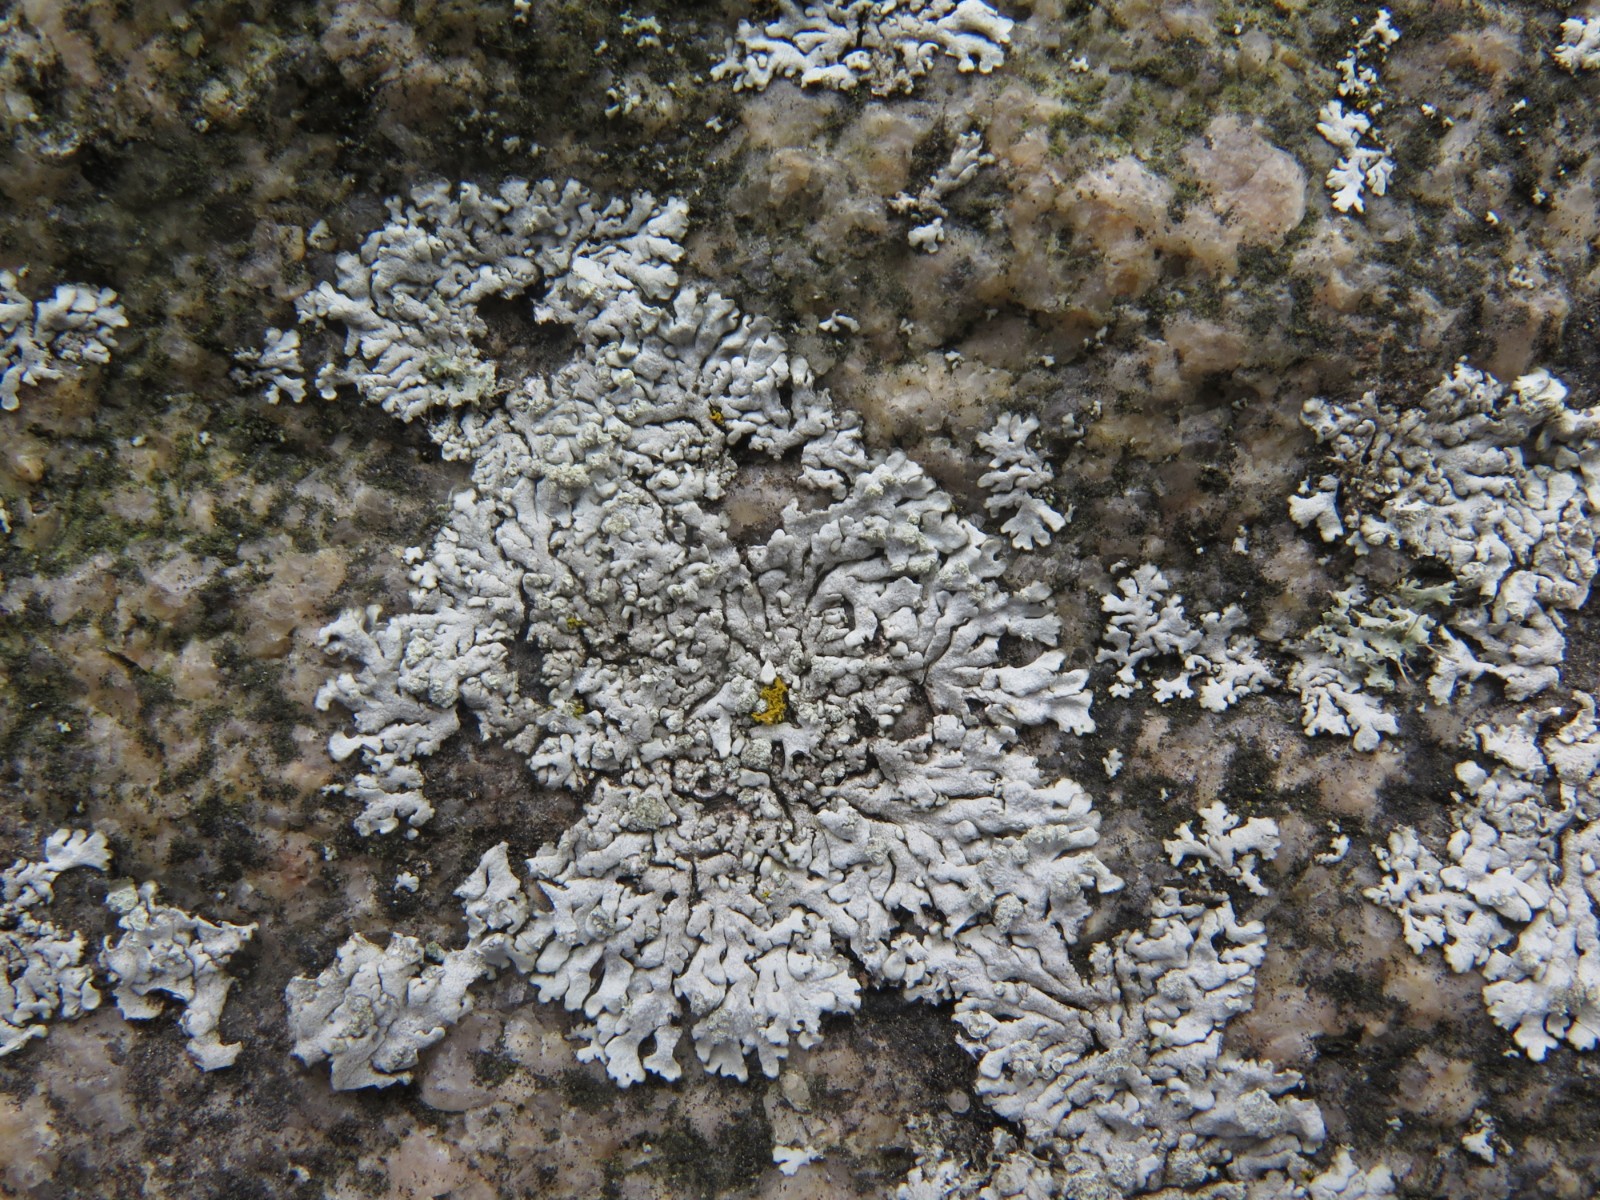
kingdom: Fungi
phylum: Ascomycota
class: Lecanoromycetes
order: Caliciales
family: Physciaceae
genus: Physcia
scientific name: Physcia caesia
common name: blågrå rosetlav
